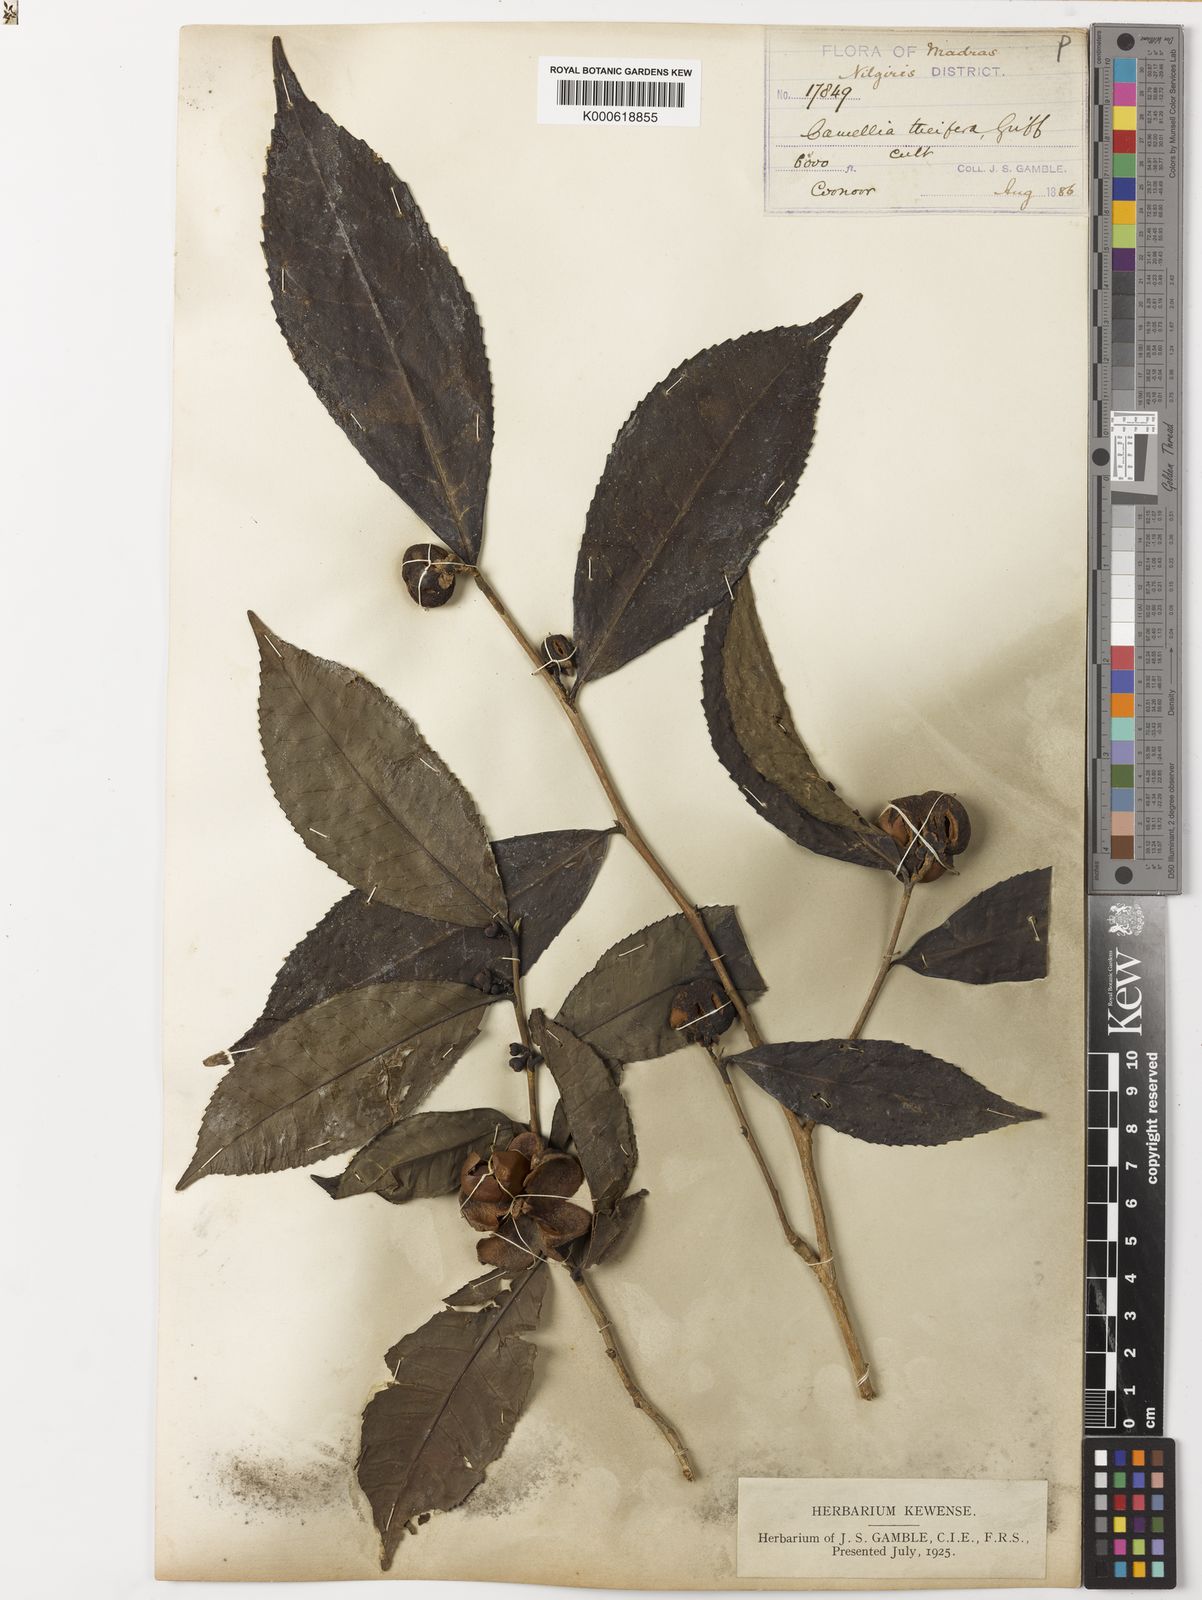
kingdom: Plantae
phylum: Tracheophyta
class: Magnoliopsida
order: Ericales
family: Theaceae
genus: Camellia
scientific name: Camellia sinensis
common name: Tea
